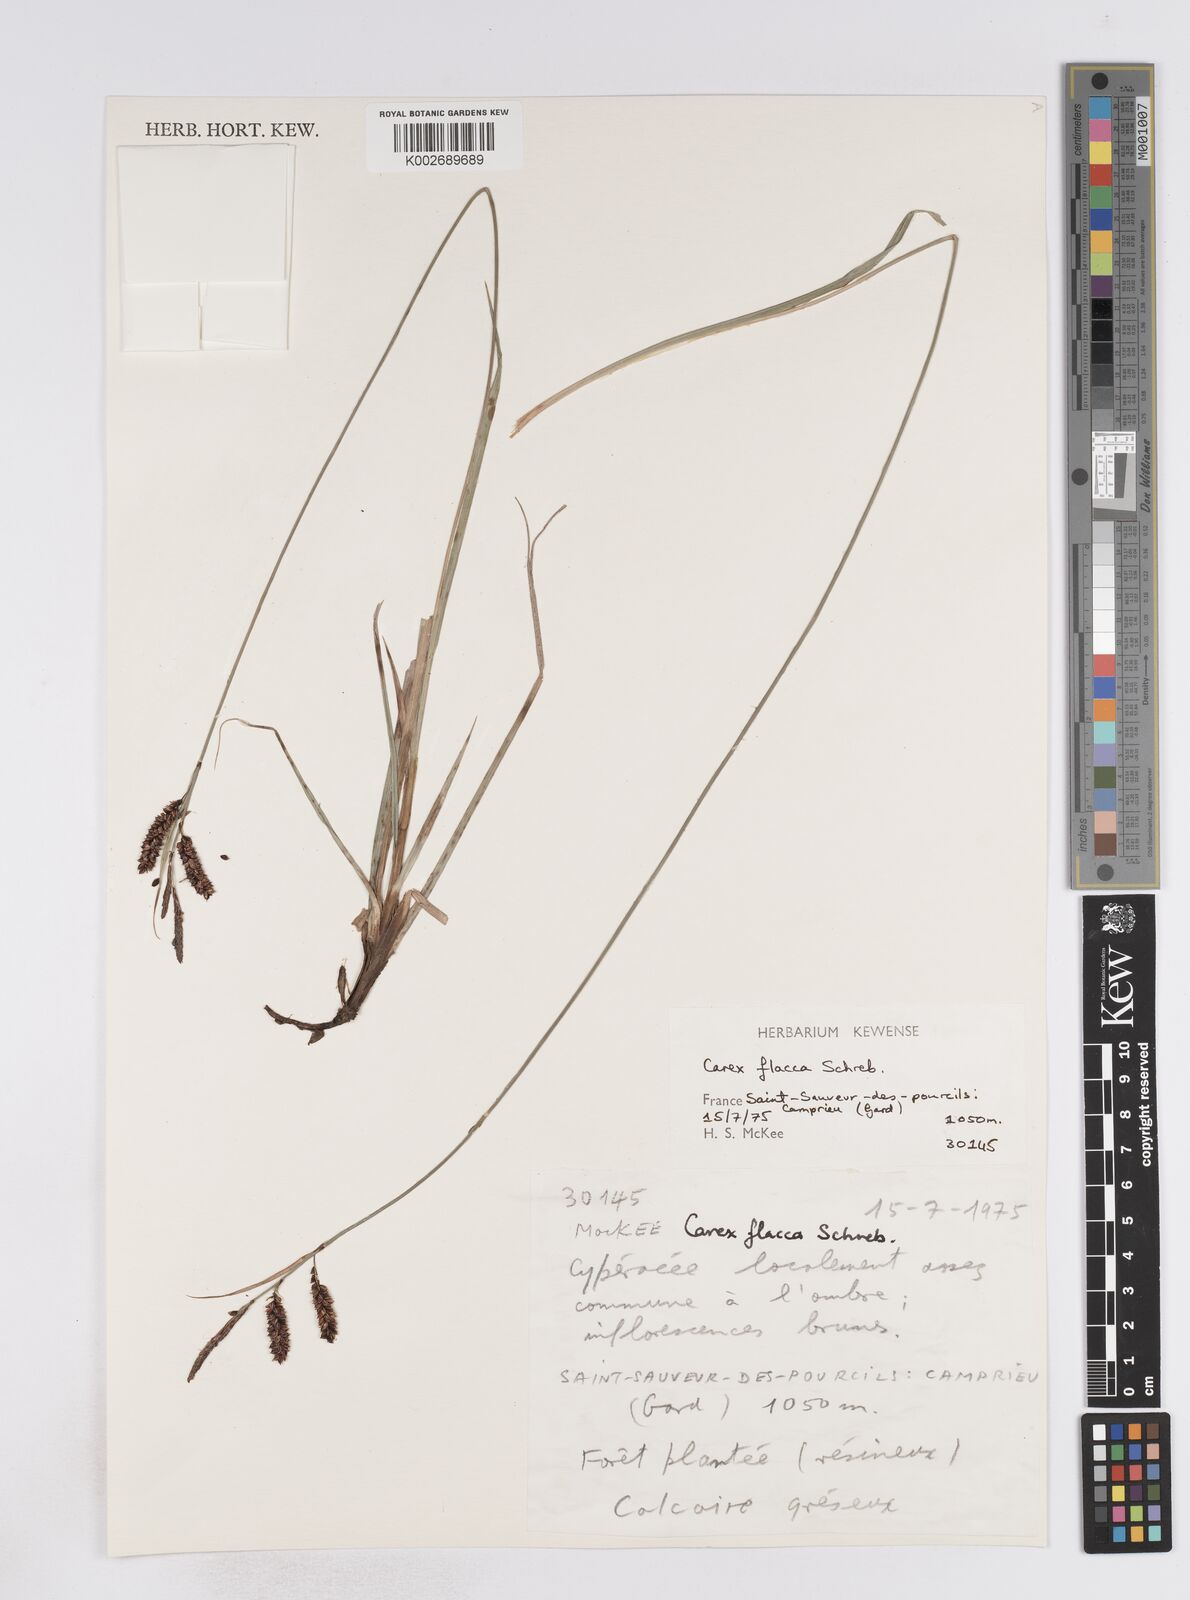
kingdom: Plantae
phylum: Tracheophyta
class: Liliopsida
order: Poales
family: Cyperaceae
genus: Carex
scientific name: Carex flacca
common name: Glaucous sedge
